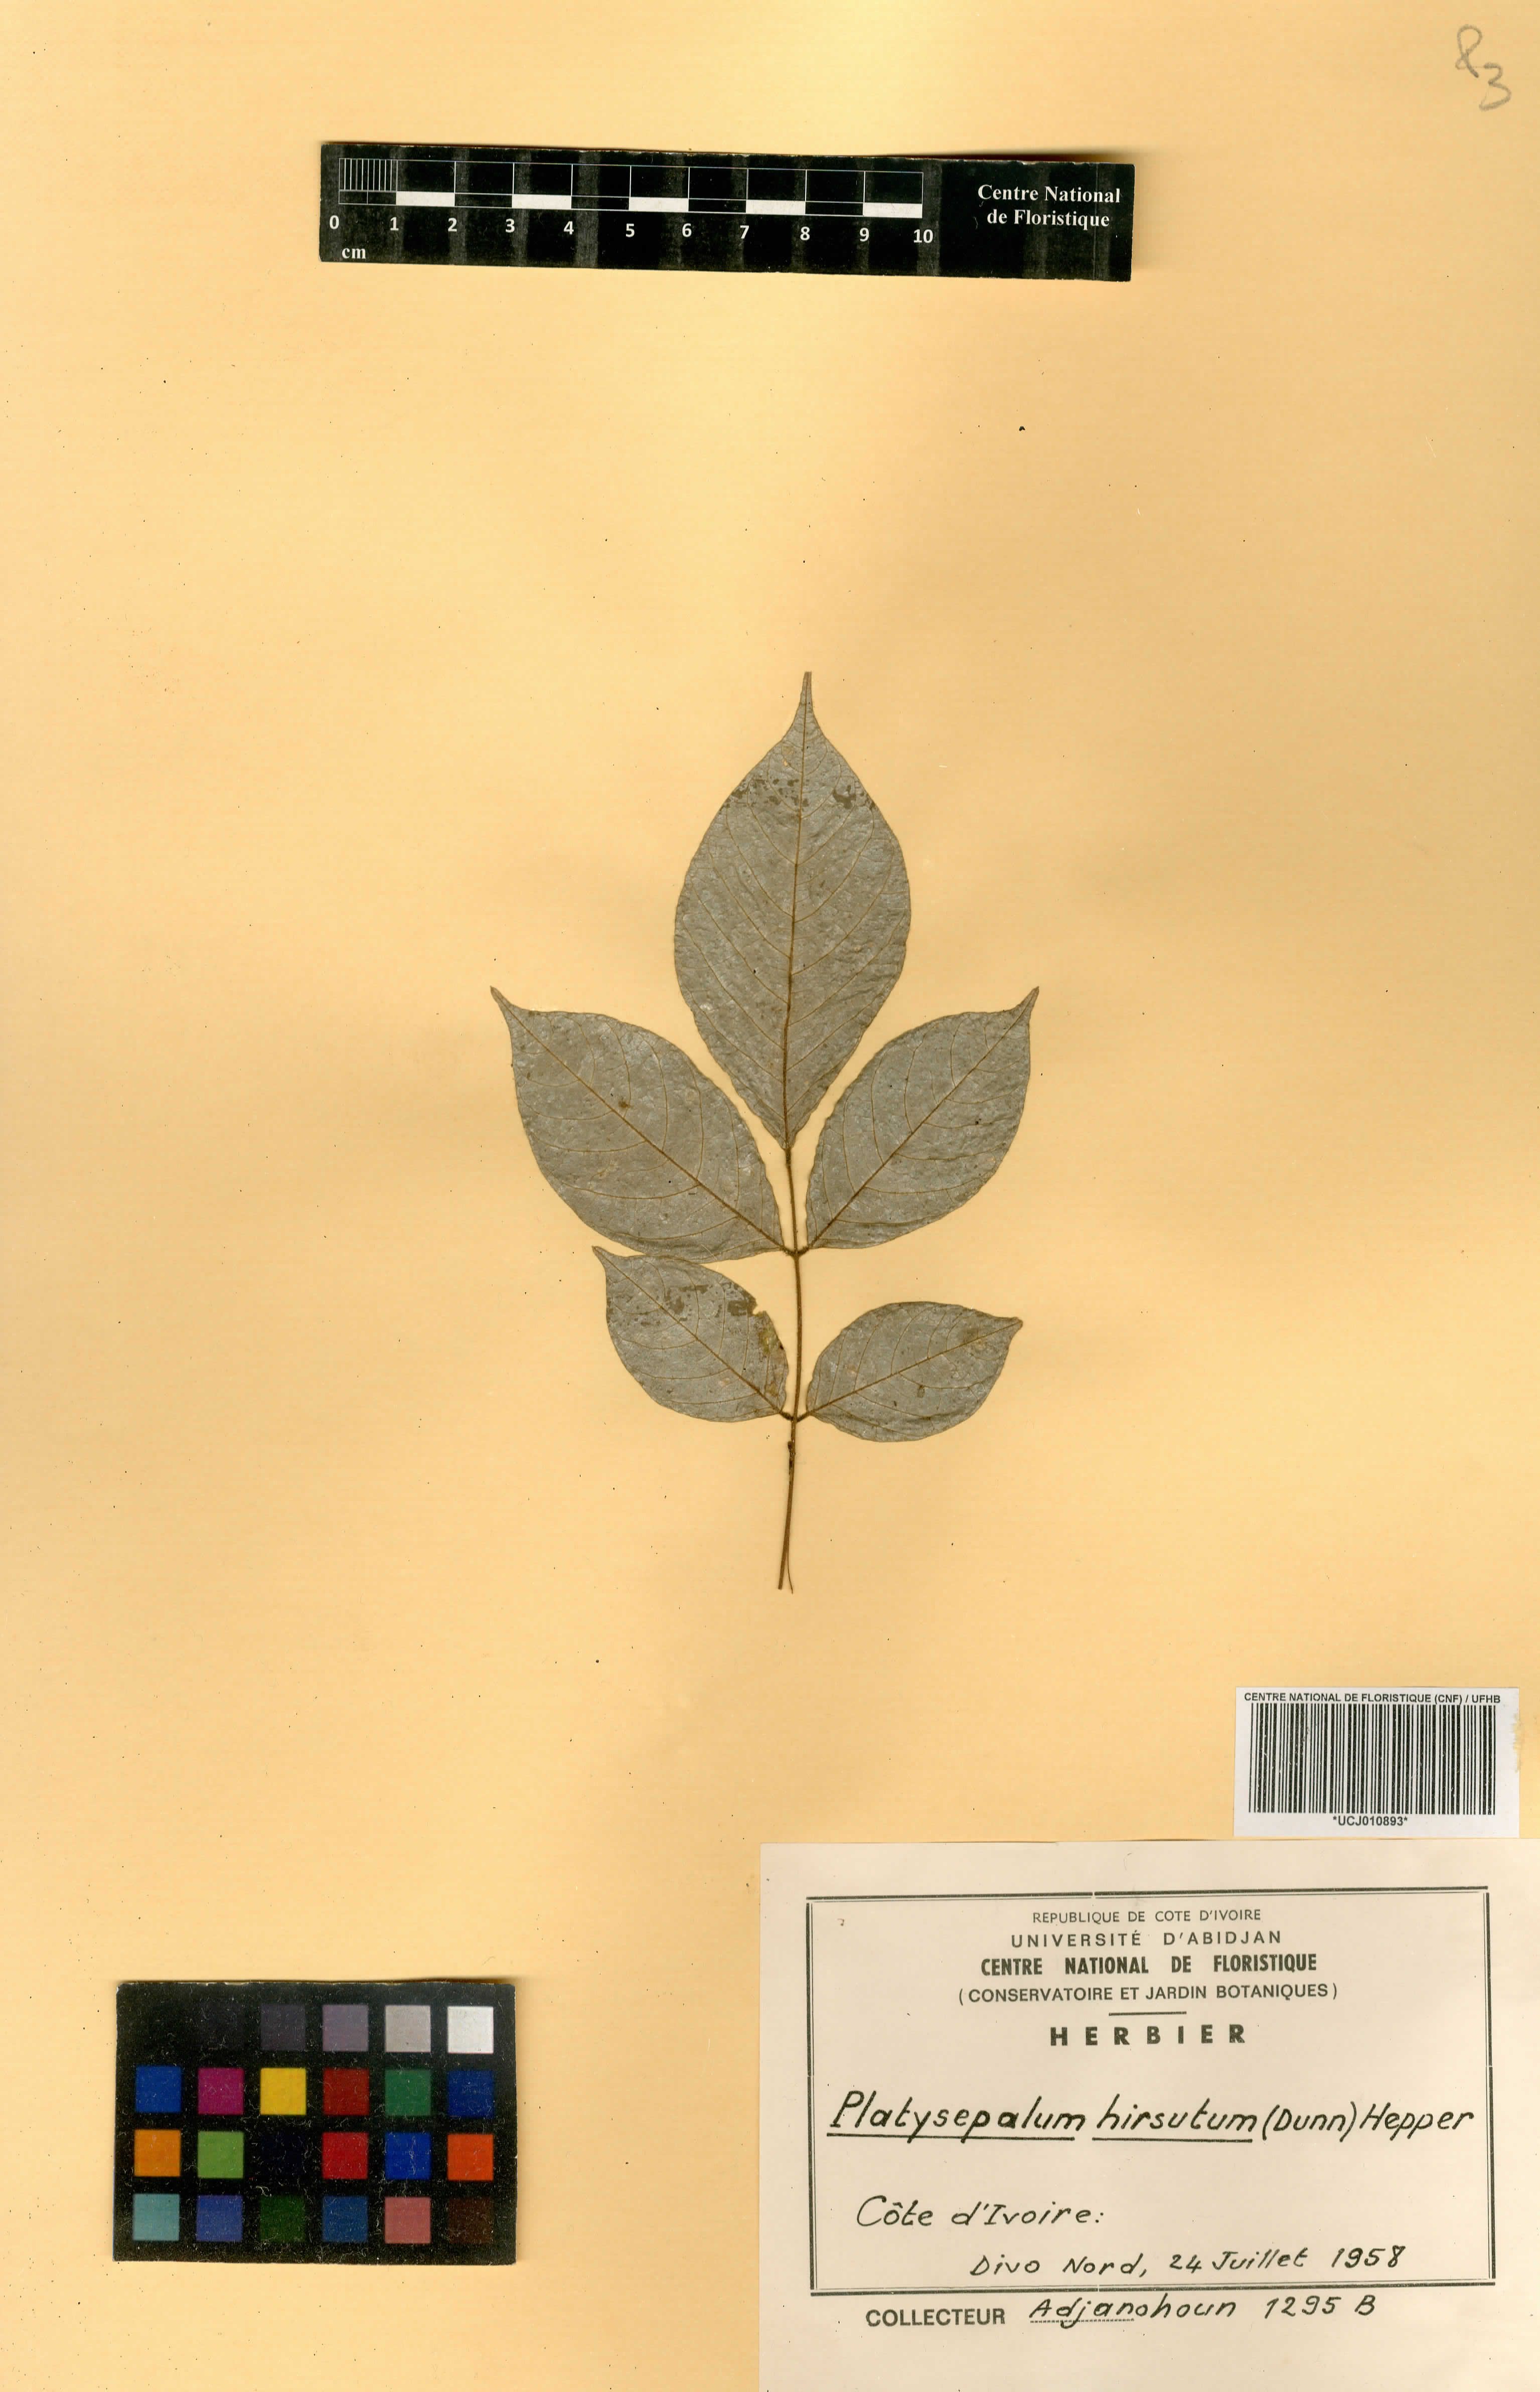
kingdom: Plantae
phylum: Tracheophyta
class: Magnoliopsida
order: Fabales
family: Fabaceae
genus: Platysepalum
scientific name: Platysepalum hirsutum
